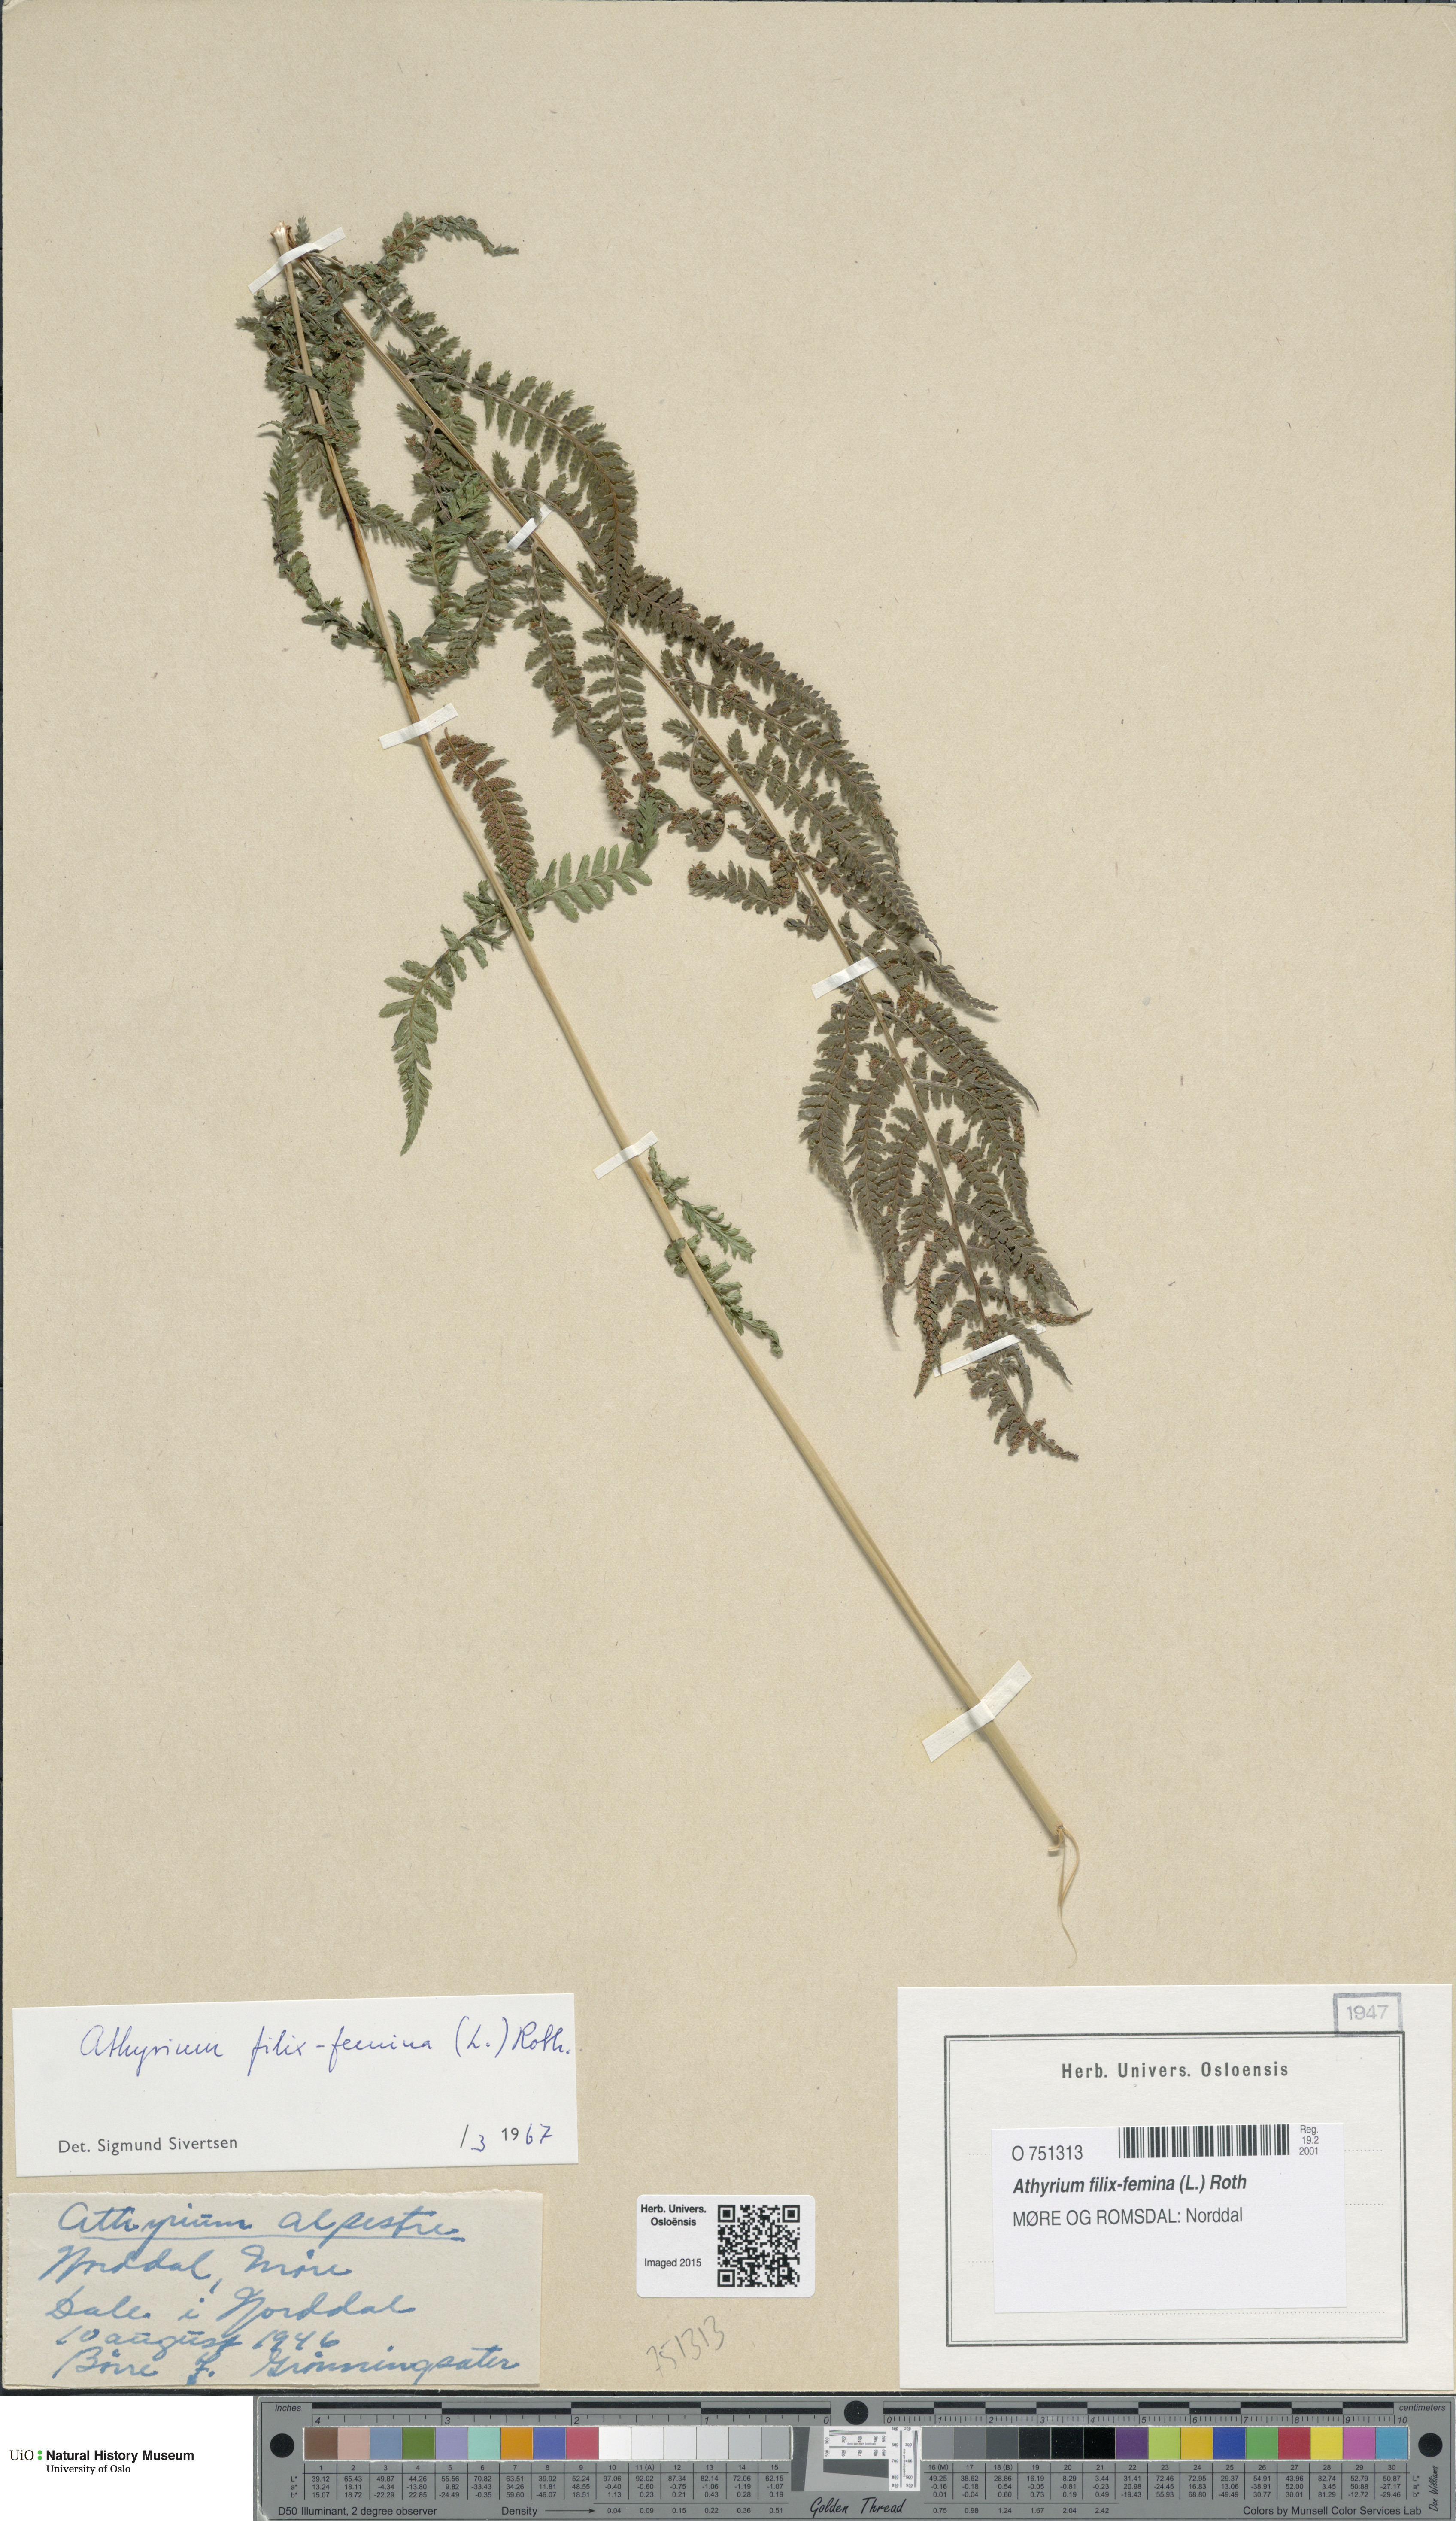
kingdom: Plantae
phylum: Tracheophyta
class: Polypodiopsida
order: Polypodiales
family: Athyriaceae
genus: Athyrium
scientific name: Athyrium filix-femina
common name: Lady fern
